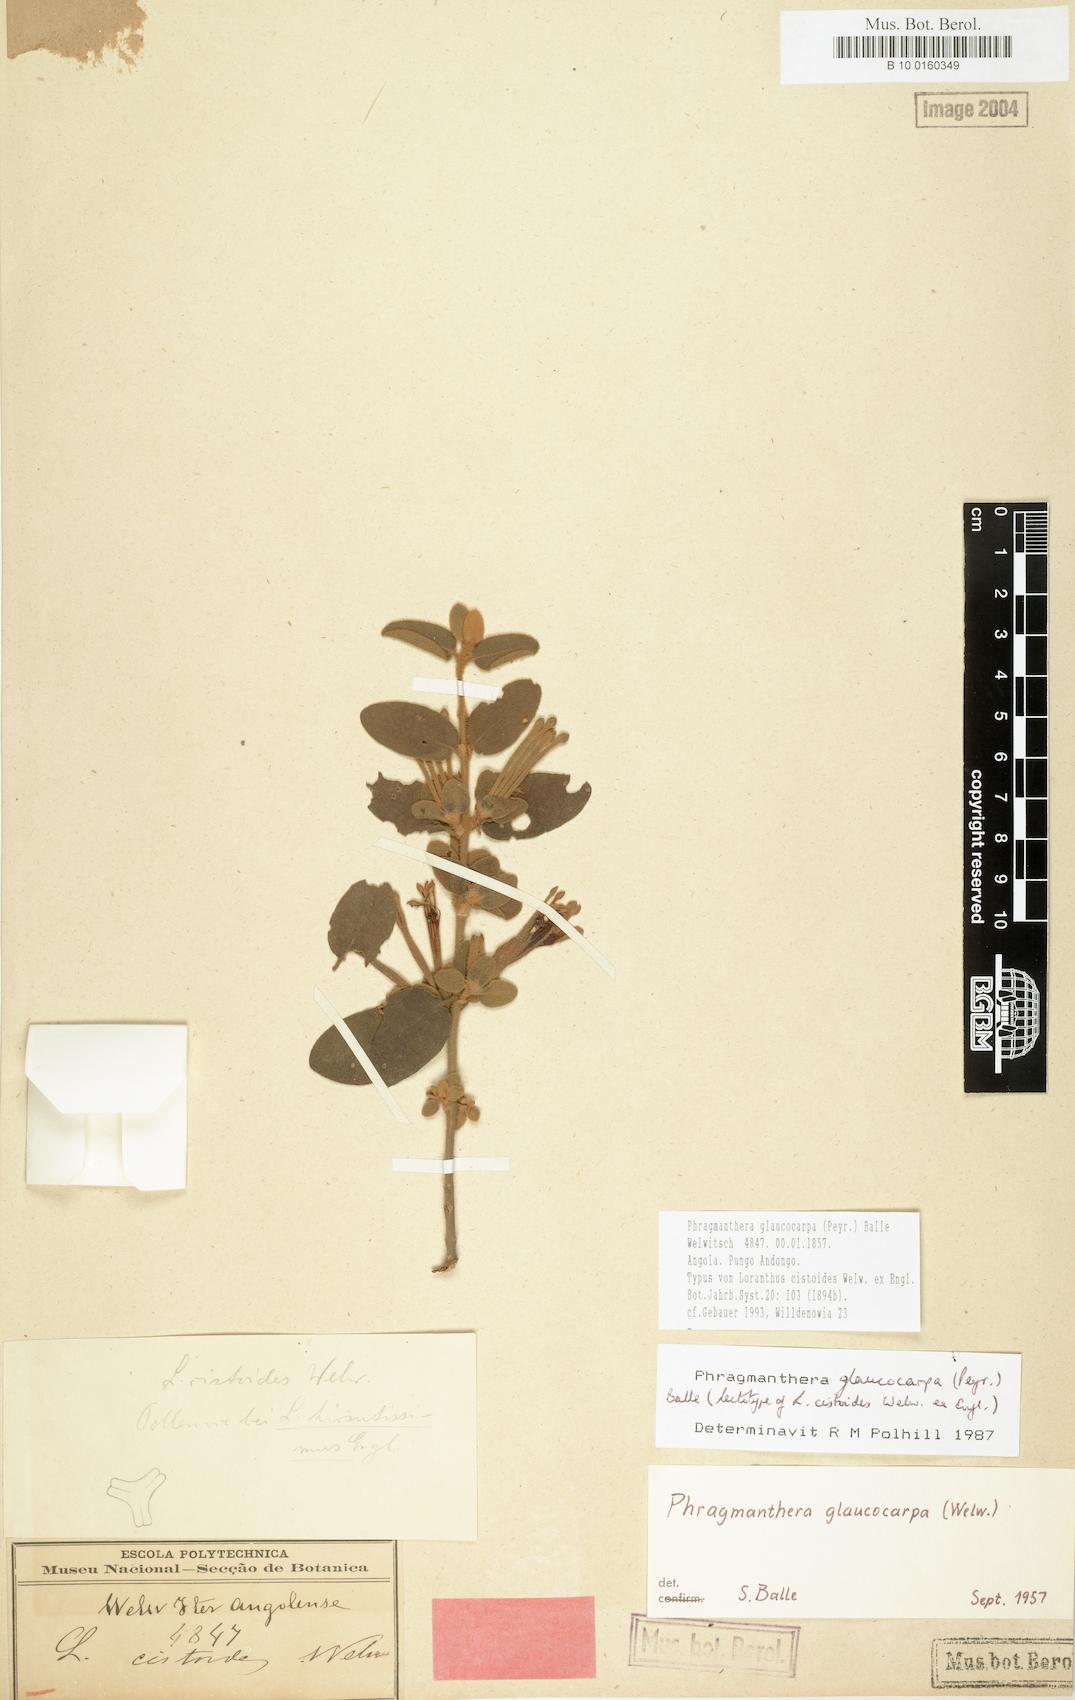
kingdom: Plantae
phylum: Tracheophyta
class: Magnoliopsida
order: Santalales
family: Loranthaceae
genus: Phragmanthera
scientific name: Phragmanthera glaucocarpa
